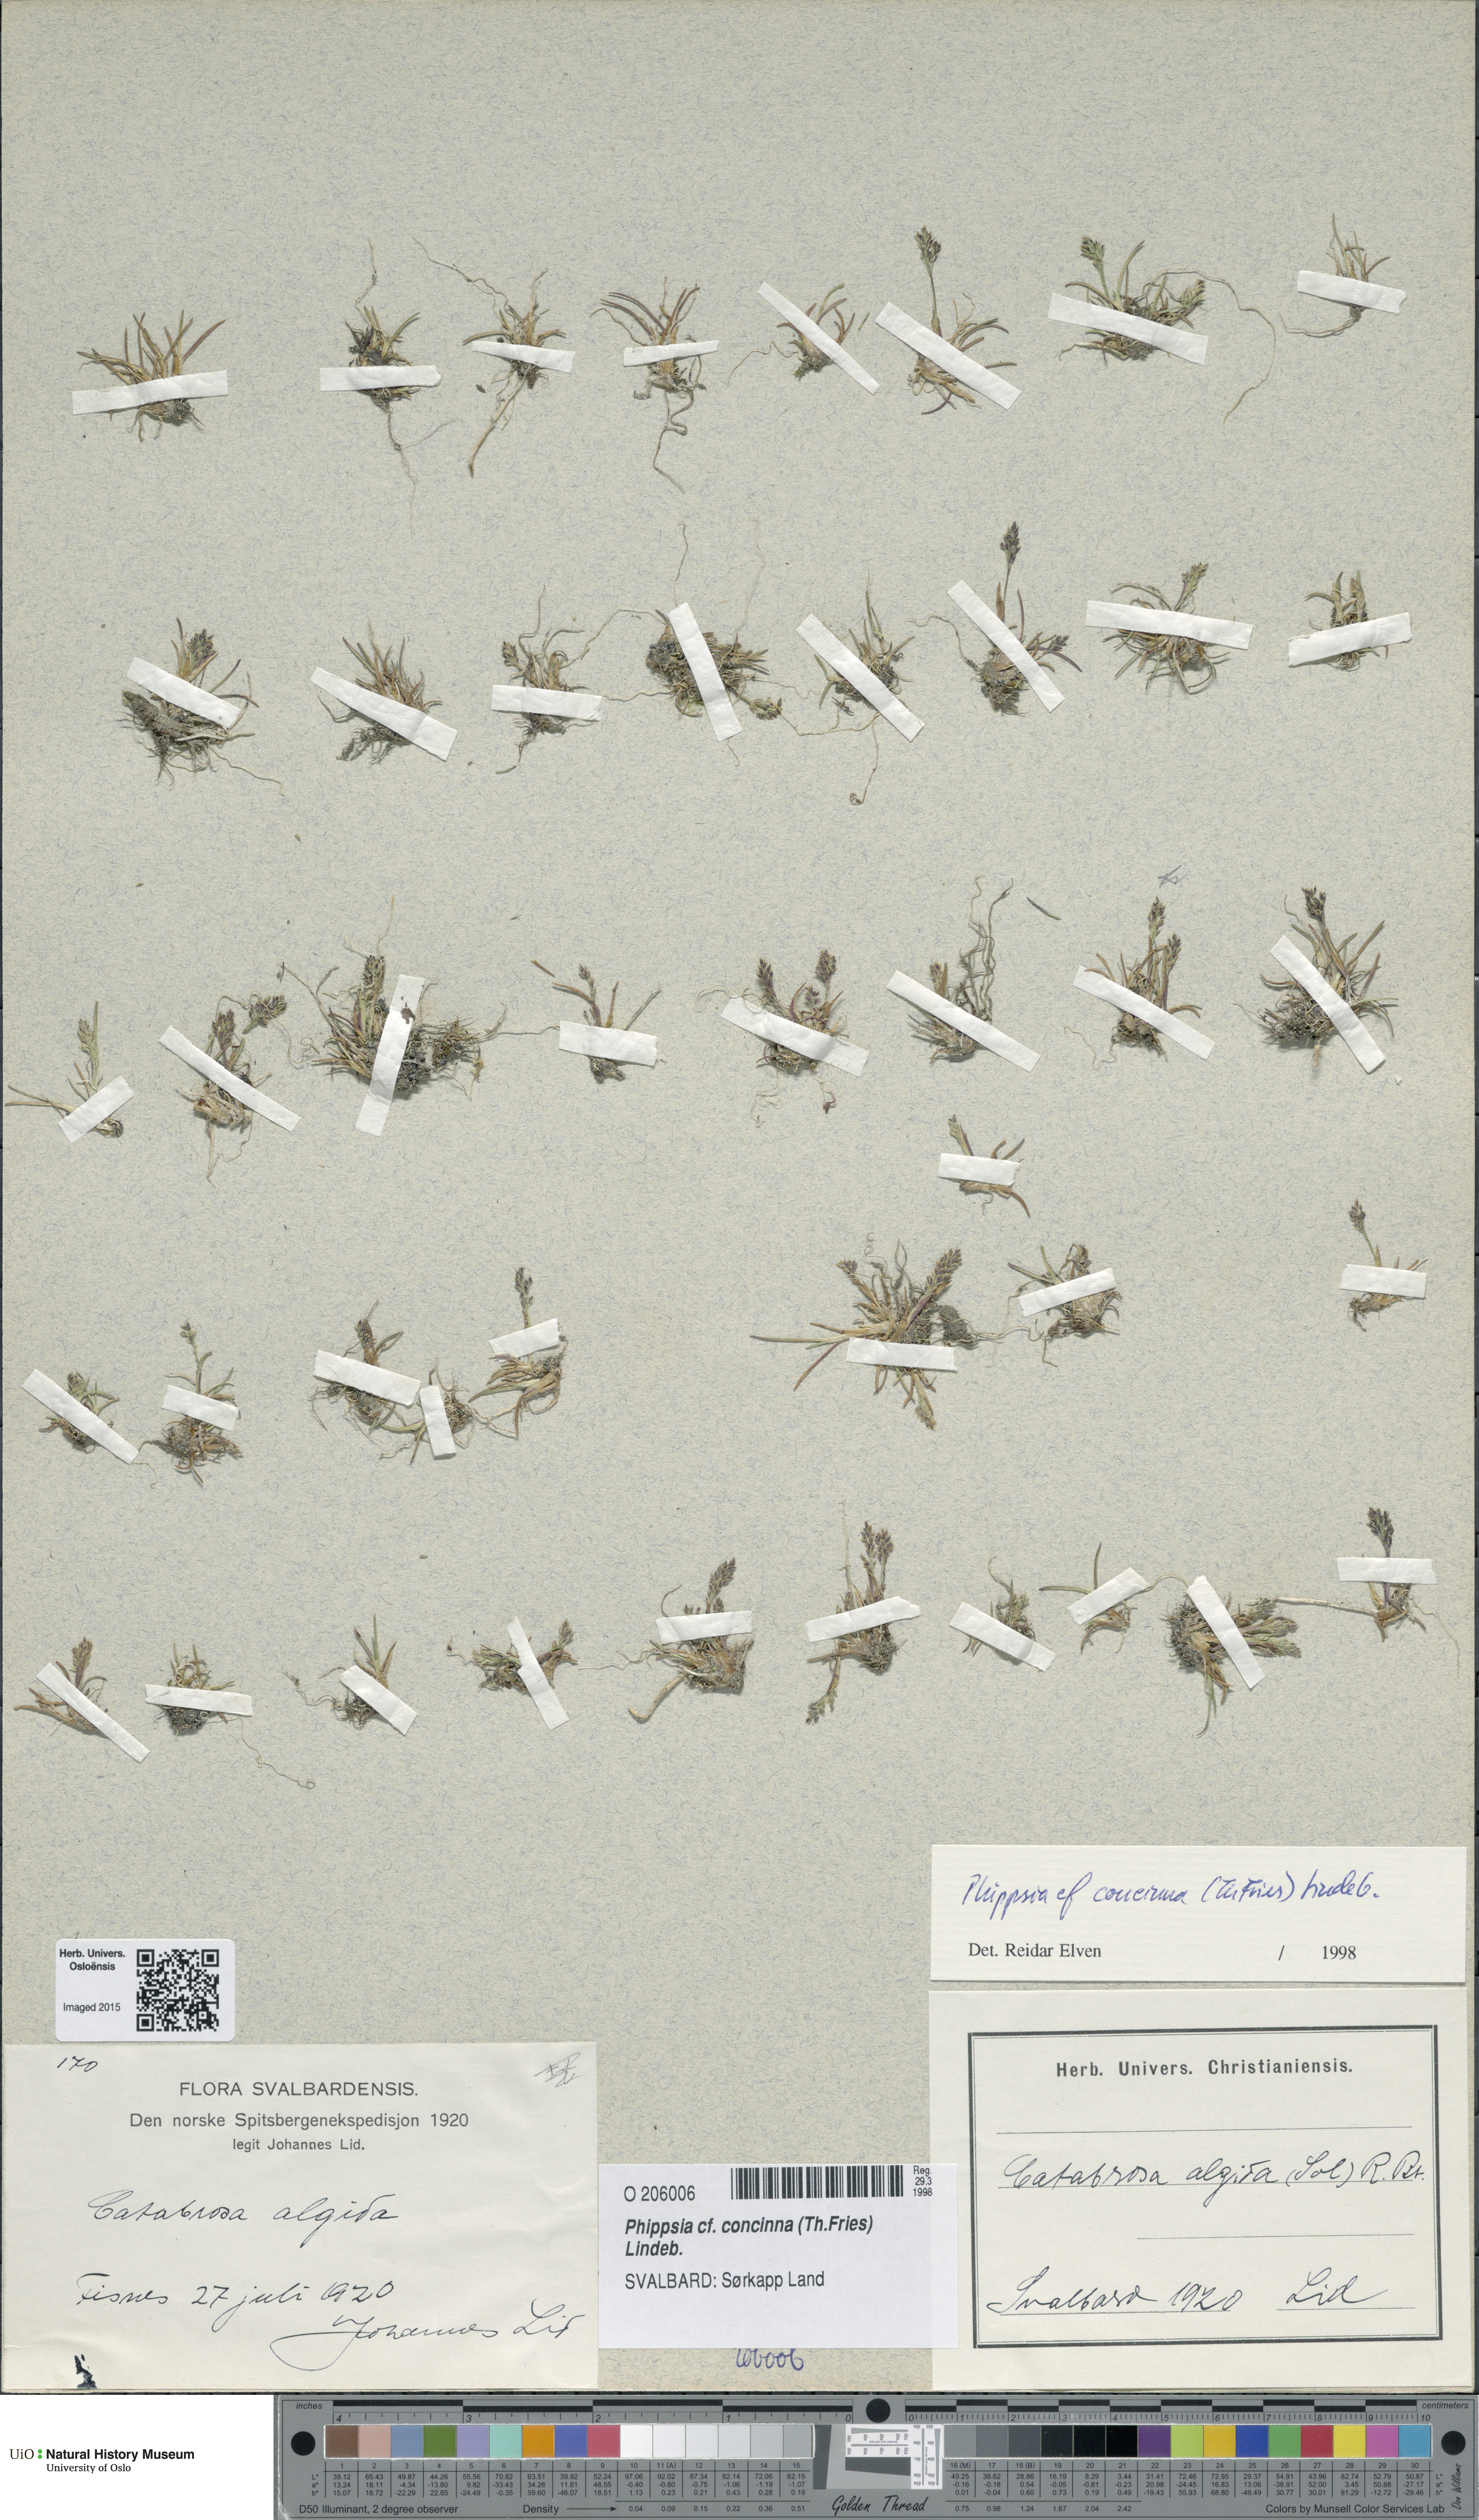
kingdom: Plantae
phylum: Tracheophyta
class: Liliopsida
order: Poales
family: Poaceae
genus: Phippsia
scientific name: Phippsia concinna
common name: Snowgrass
